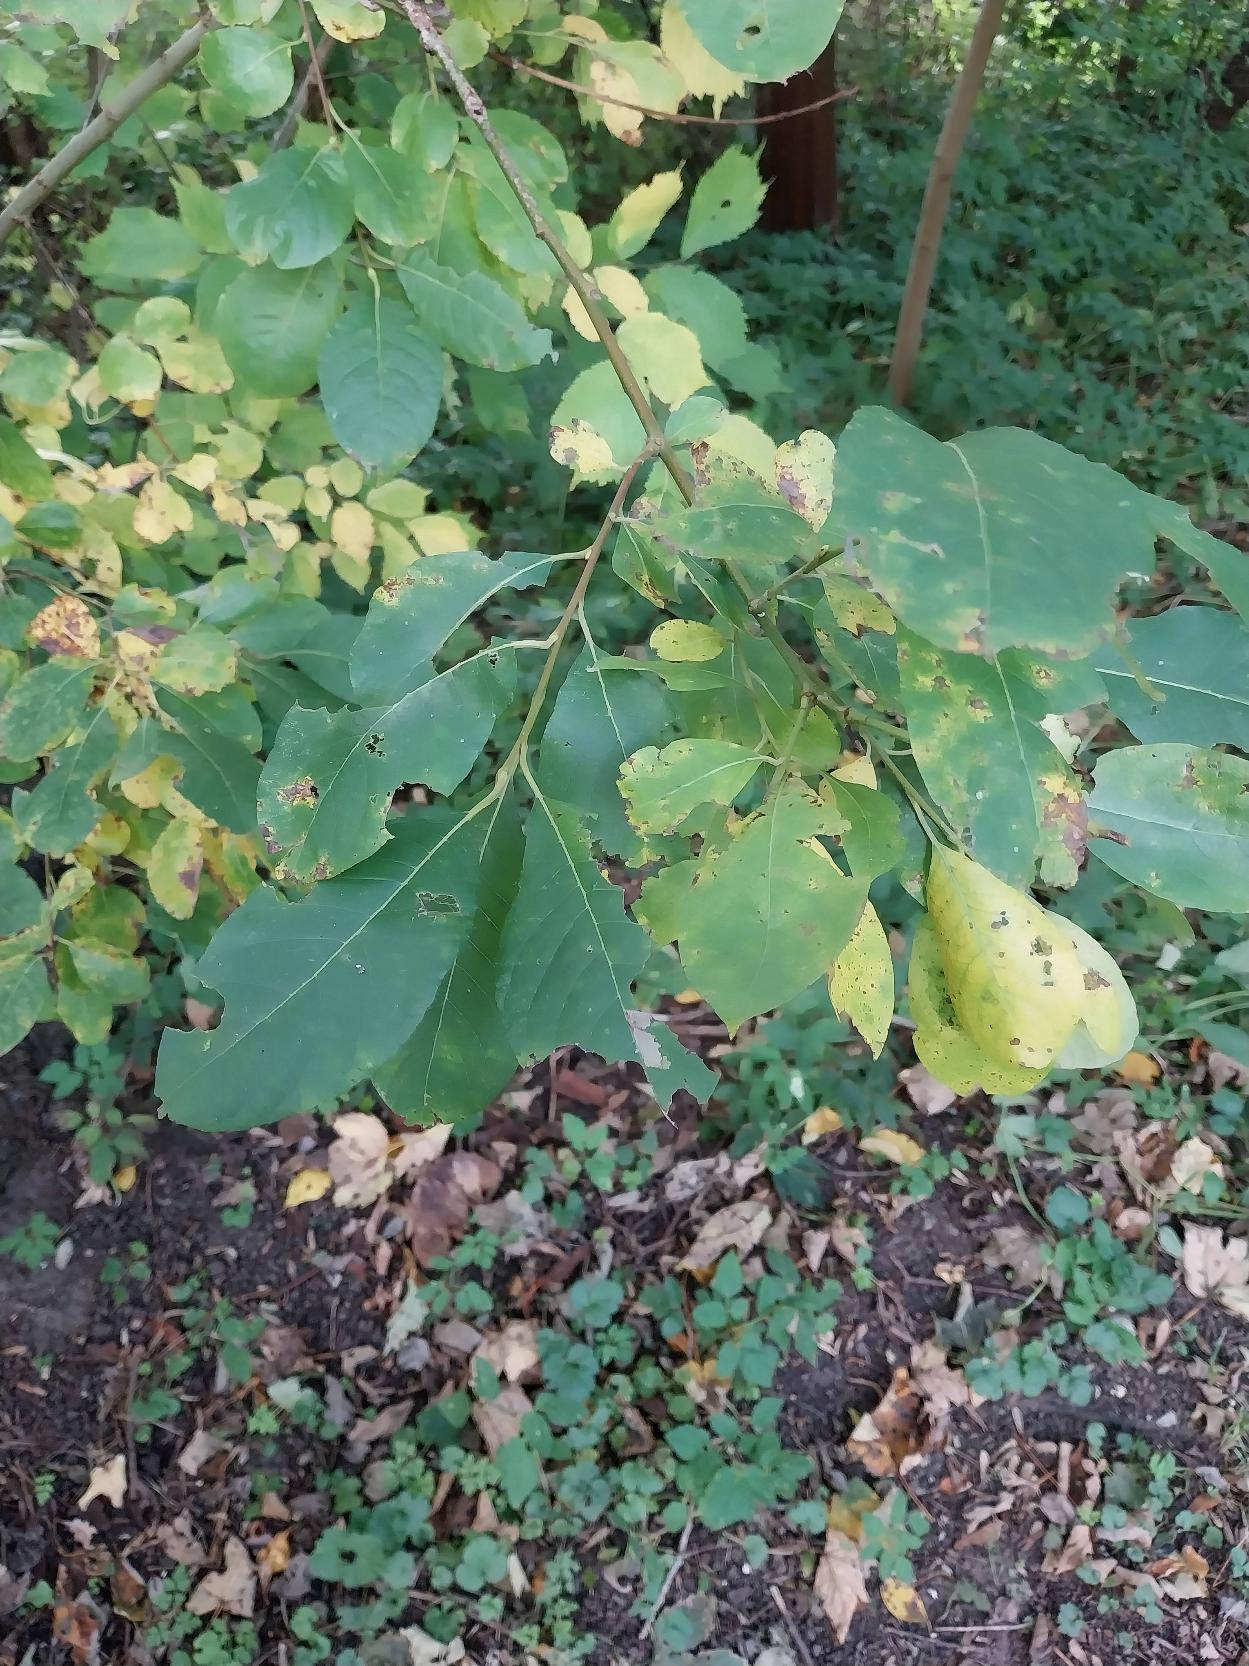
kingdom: Plantae
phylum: Tracheophyta
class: Magnoliopsida
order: Malpighiales
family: Salicaceae
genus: Salix
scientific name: Salix caprea
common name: Selje-pil
